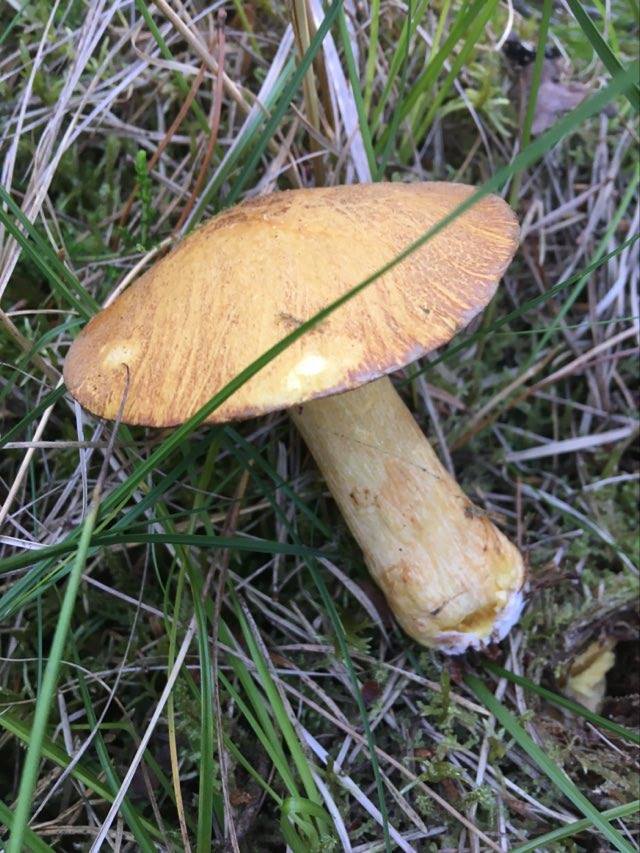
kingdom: Fungi
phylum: Basidiomycota
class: Agaricomycetes
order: Boletales
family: Suillaceae
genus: Suillus
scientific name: Suillus variegatus
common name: broget slimrørhat
